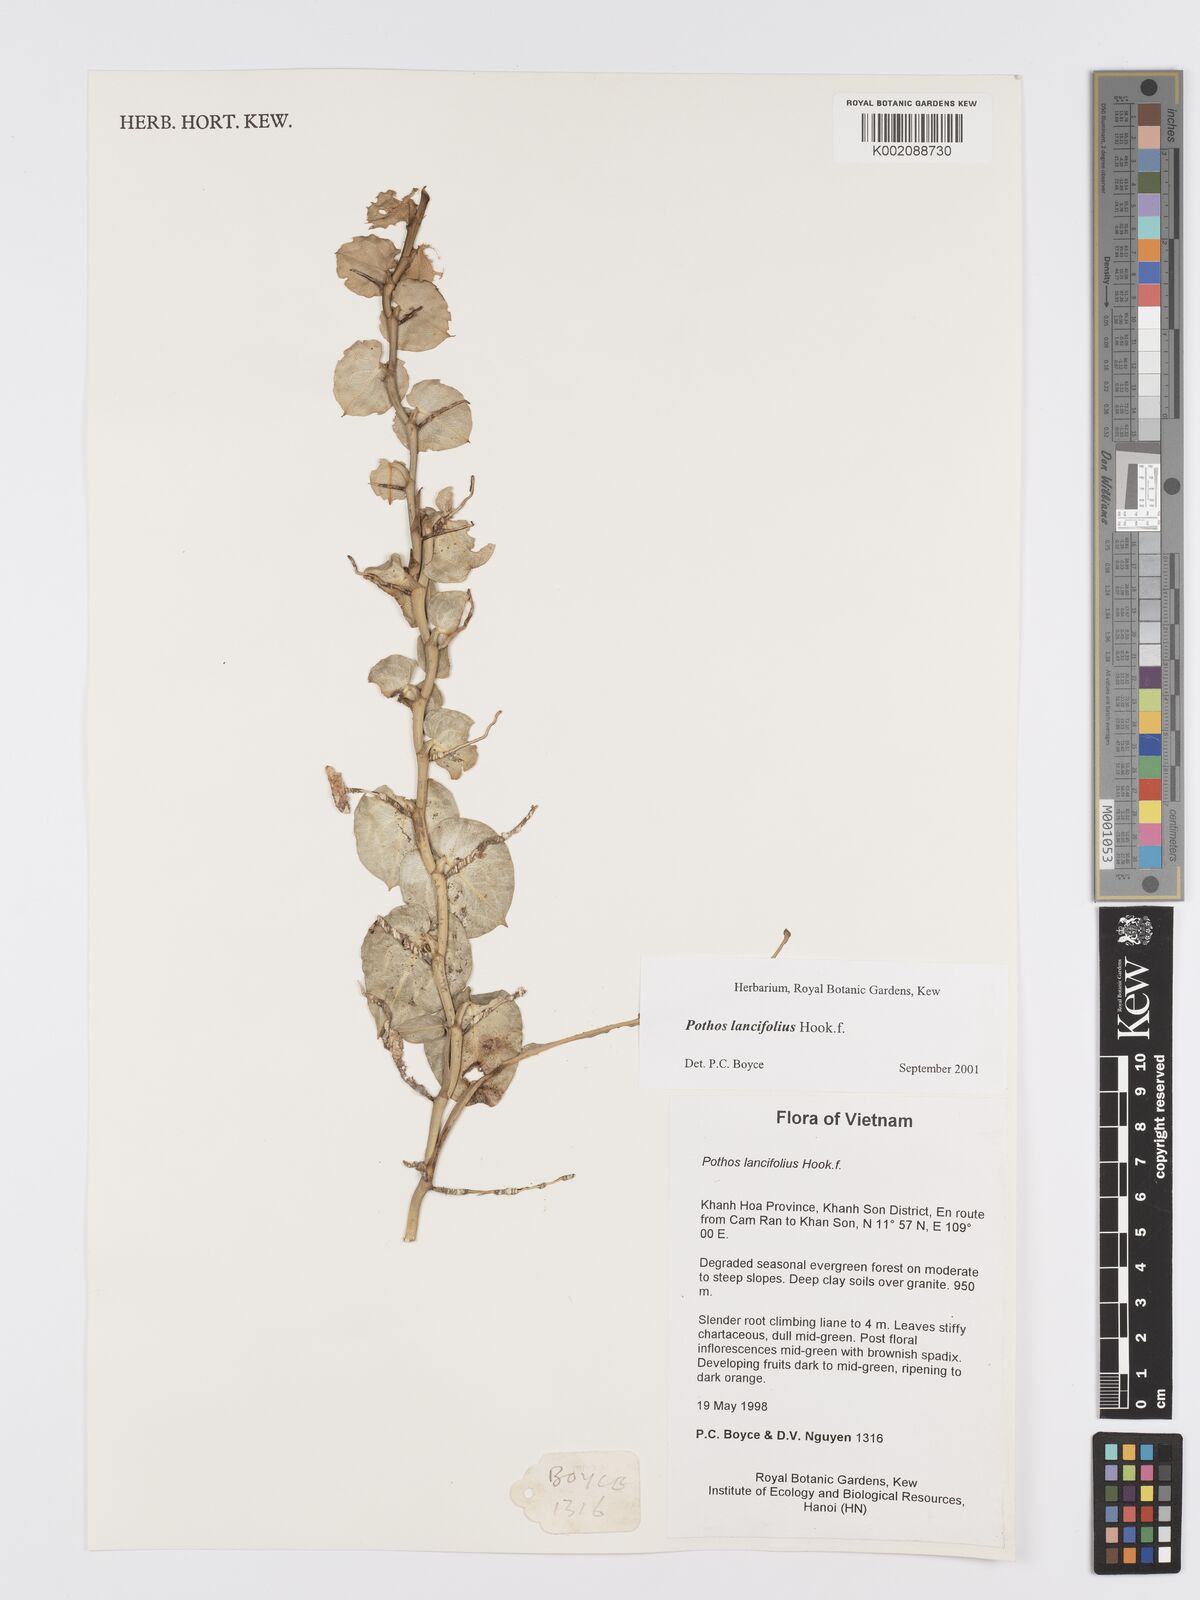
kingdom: Plantae
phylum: Tracheophyta
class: Liliopsida
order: Alismatales
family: Araceae
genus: Pothos
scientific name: Pothos lancifolius
